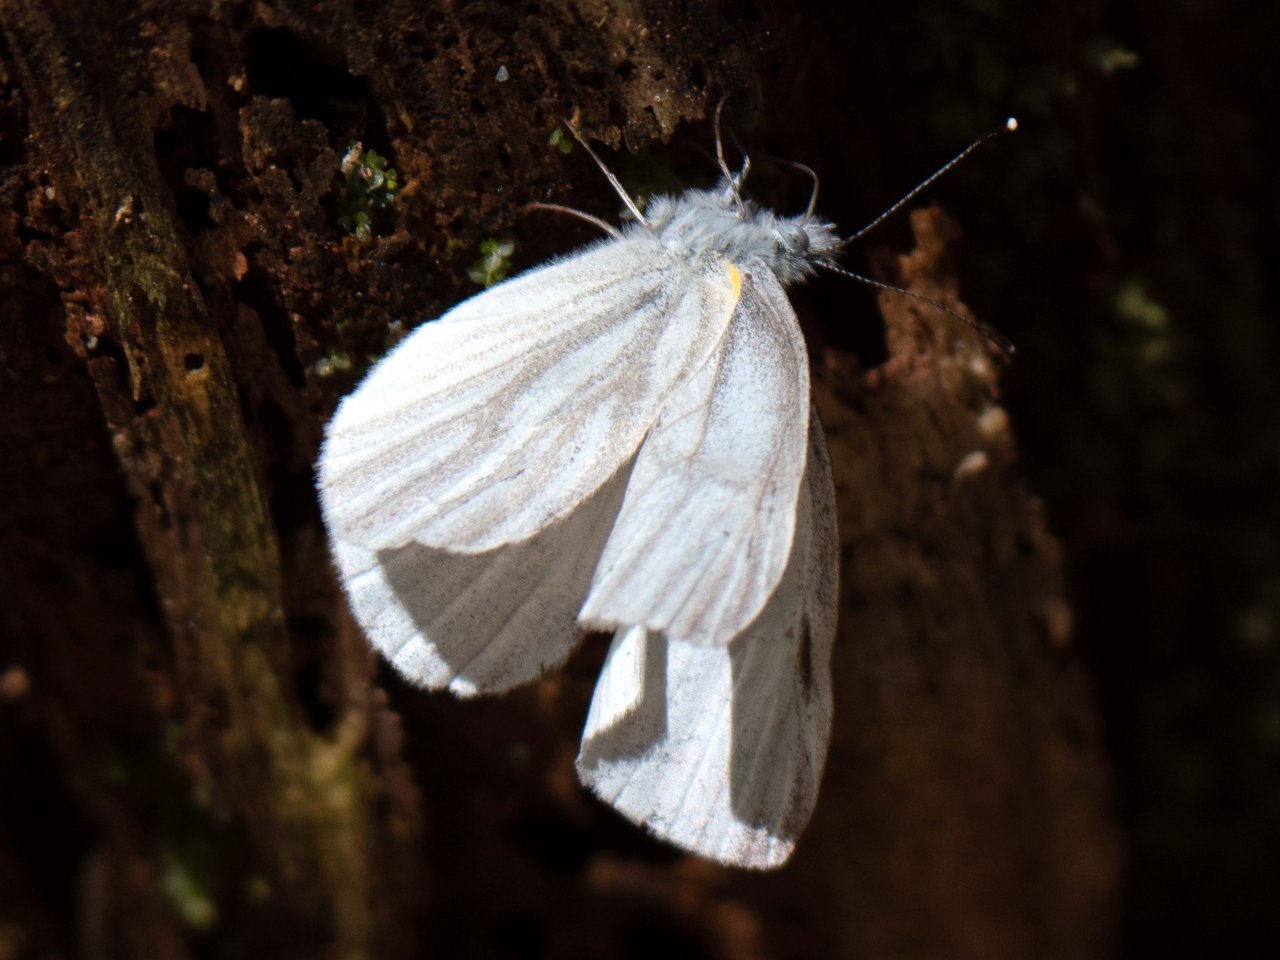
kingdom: Animalia
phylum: Arthropoda
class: Insecta
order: Lepidoptera
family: Pieridae
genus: Pieris
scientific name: Pieris virginiensis
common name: West Virginia White
